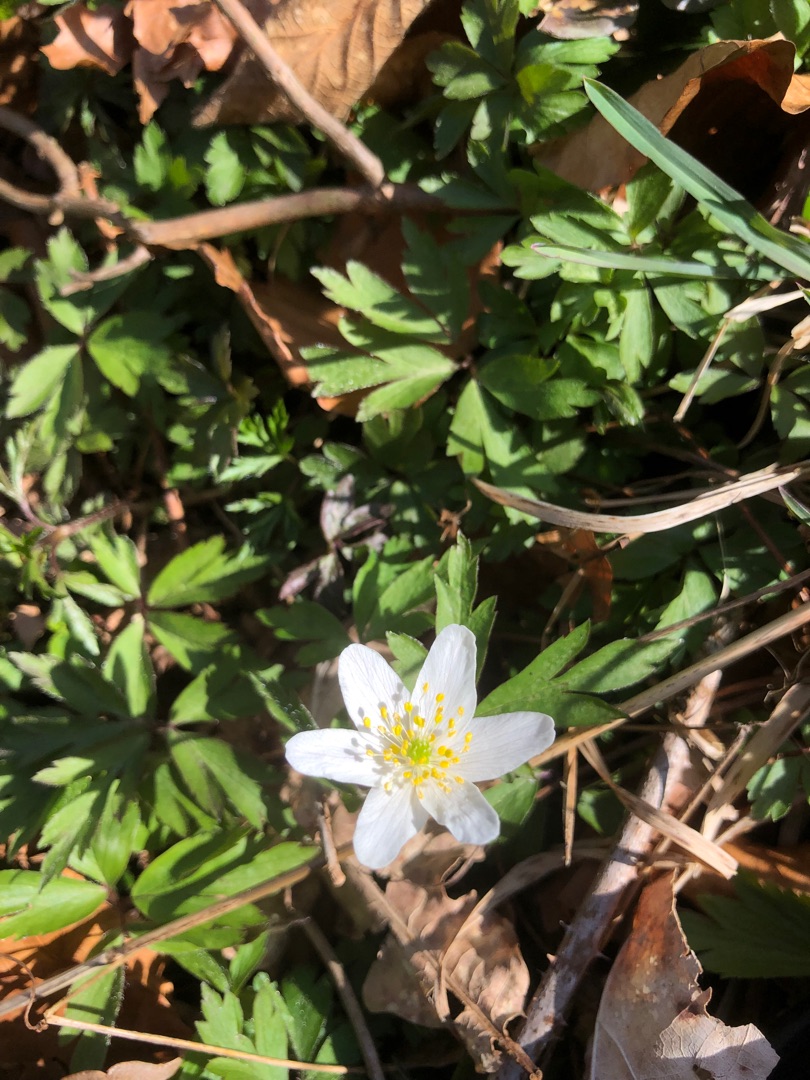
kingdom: Plantae
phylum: Tracheophyta
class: Magnoliopsida
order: Ranunculales
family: Ranunculaceae
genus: Anemone
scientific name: Anemone nemorosa
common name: Hvid anemone
